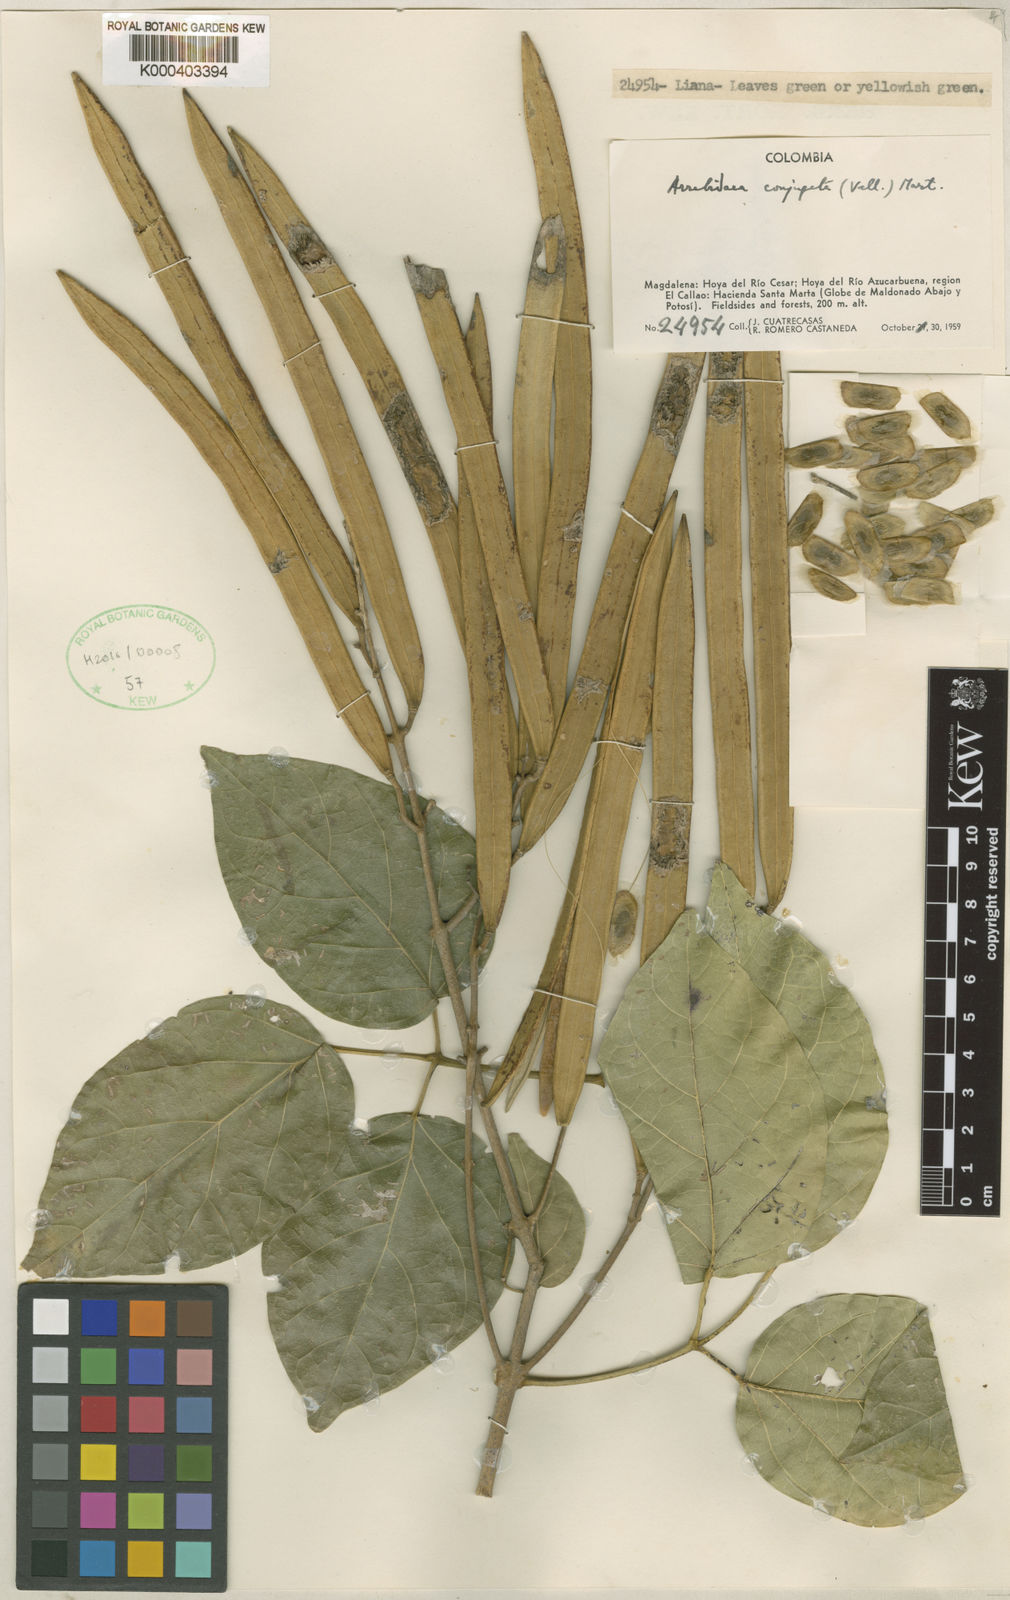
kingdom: Plantae
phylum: Tracheophyta
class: Magnoliopsida
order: Lamiales
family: Bignoniaceae
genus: Fridericia
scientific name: Fridericia conjugata
